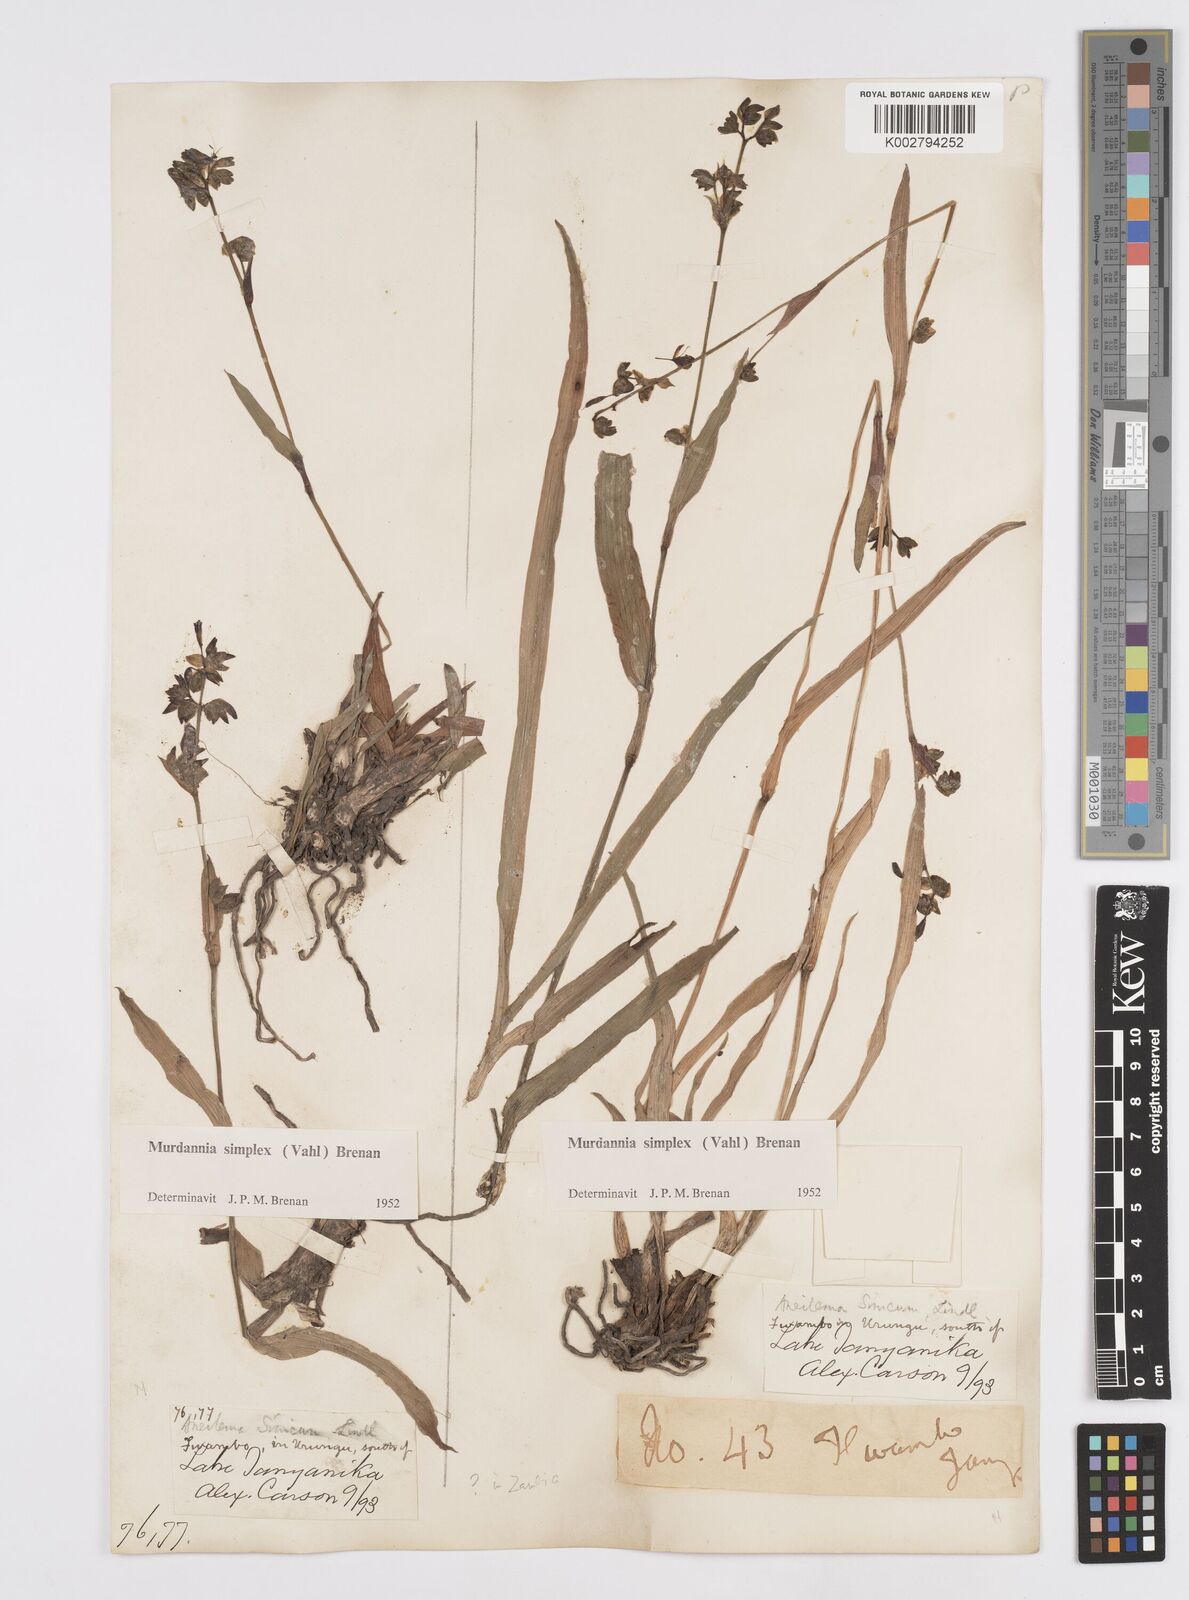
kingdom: Plantae
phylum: Tracheophyta
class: Liliopsida
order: Commelinales
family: Commelinaceae
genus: Murdannia
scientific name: Murdannia simplex
